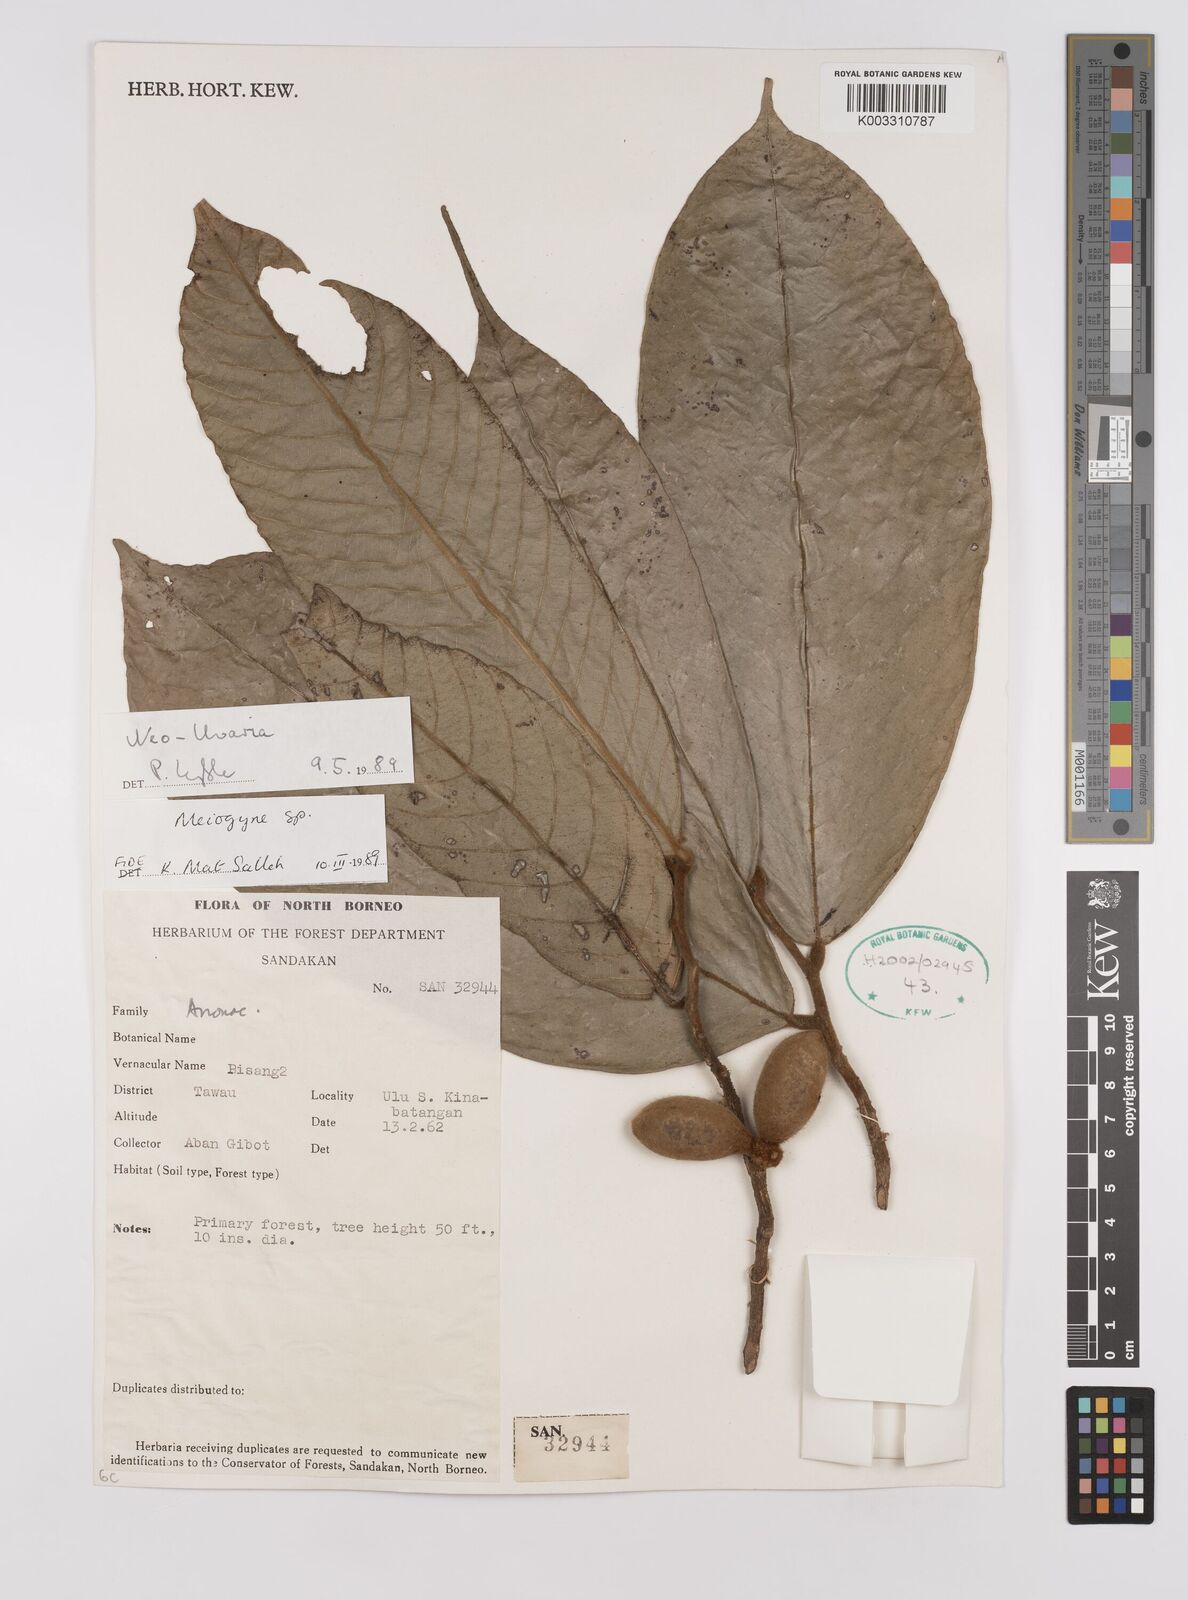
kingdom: Plantae
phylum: Tracheophyta
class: Magnoliopsida
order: Magnoliales
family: Annonaceae
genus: Neo-uvaria
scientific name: Neo-uvaria
